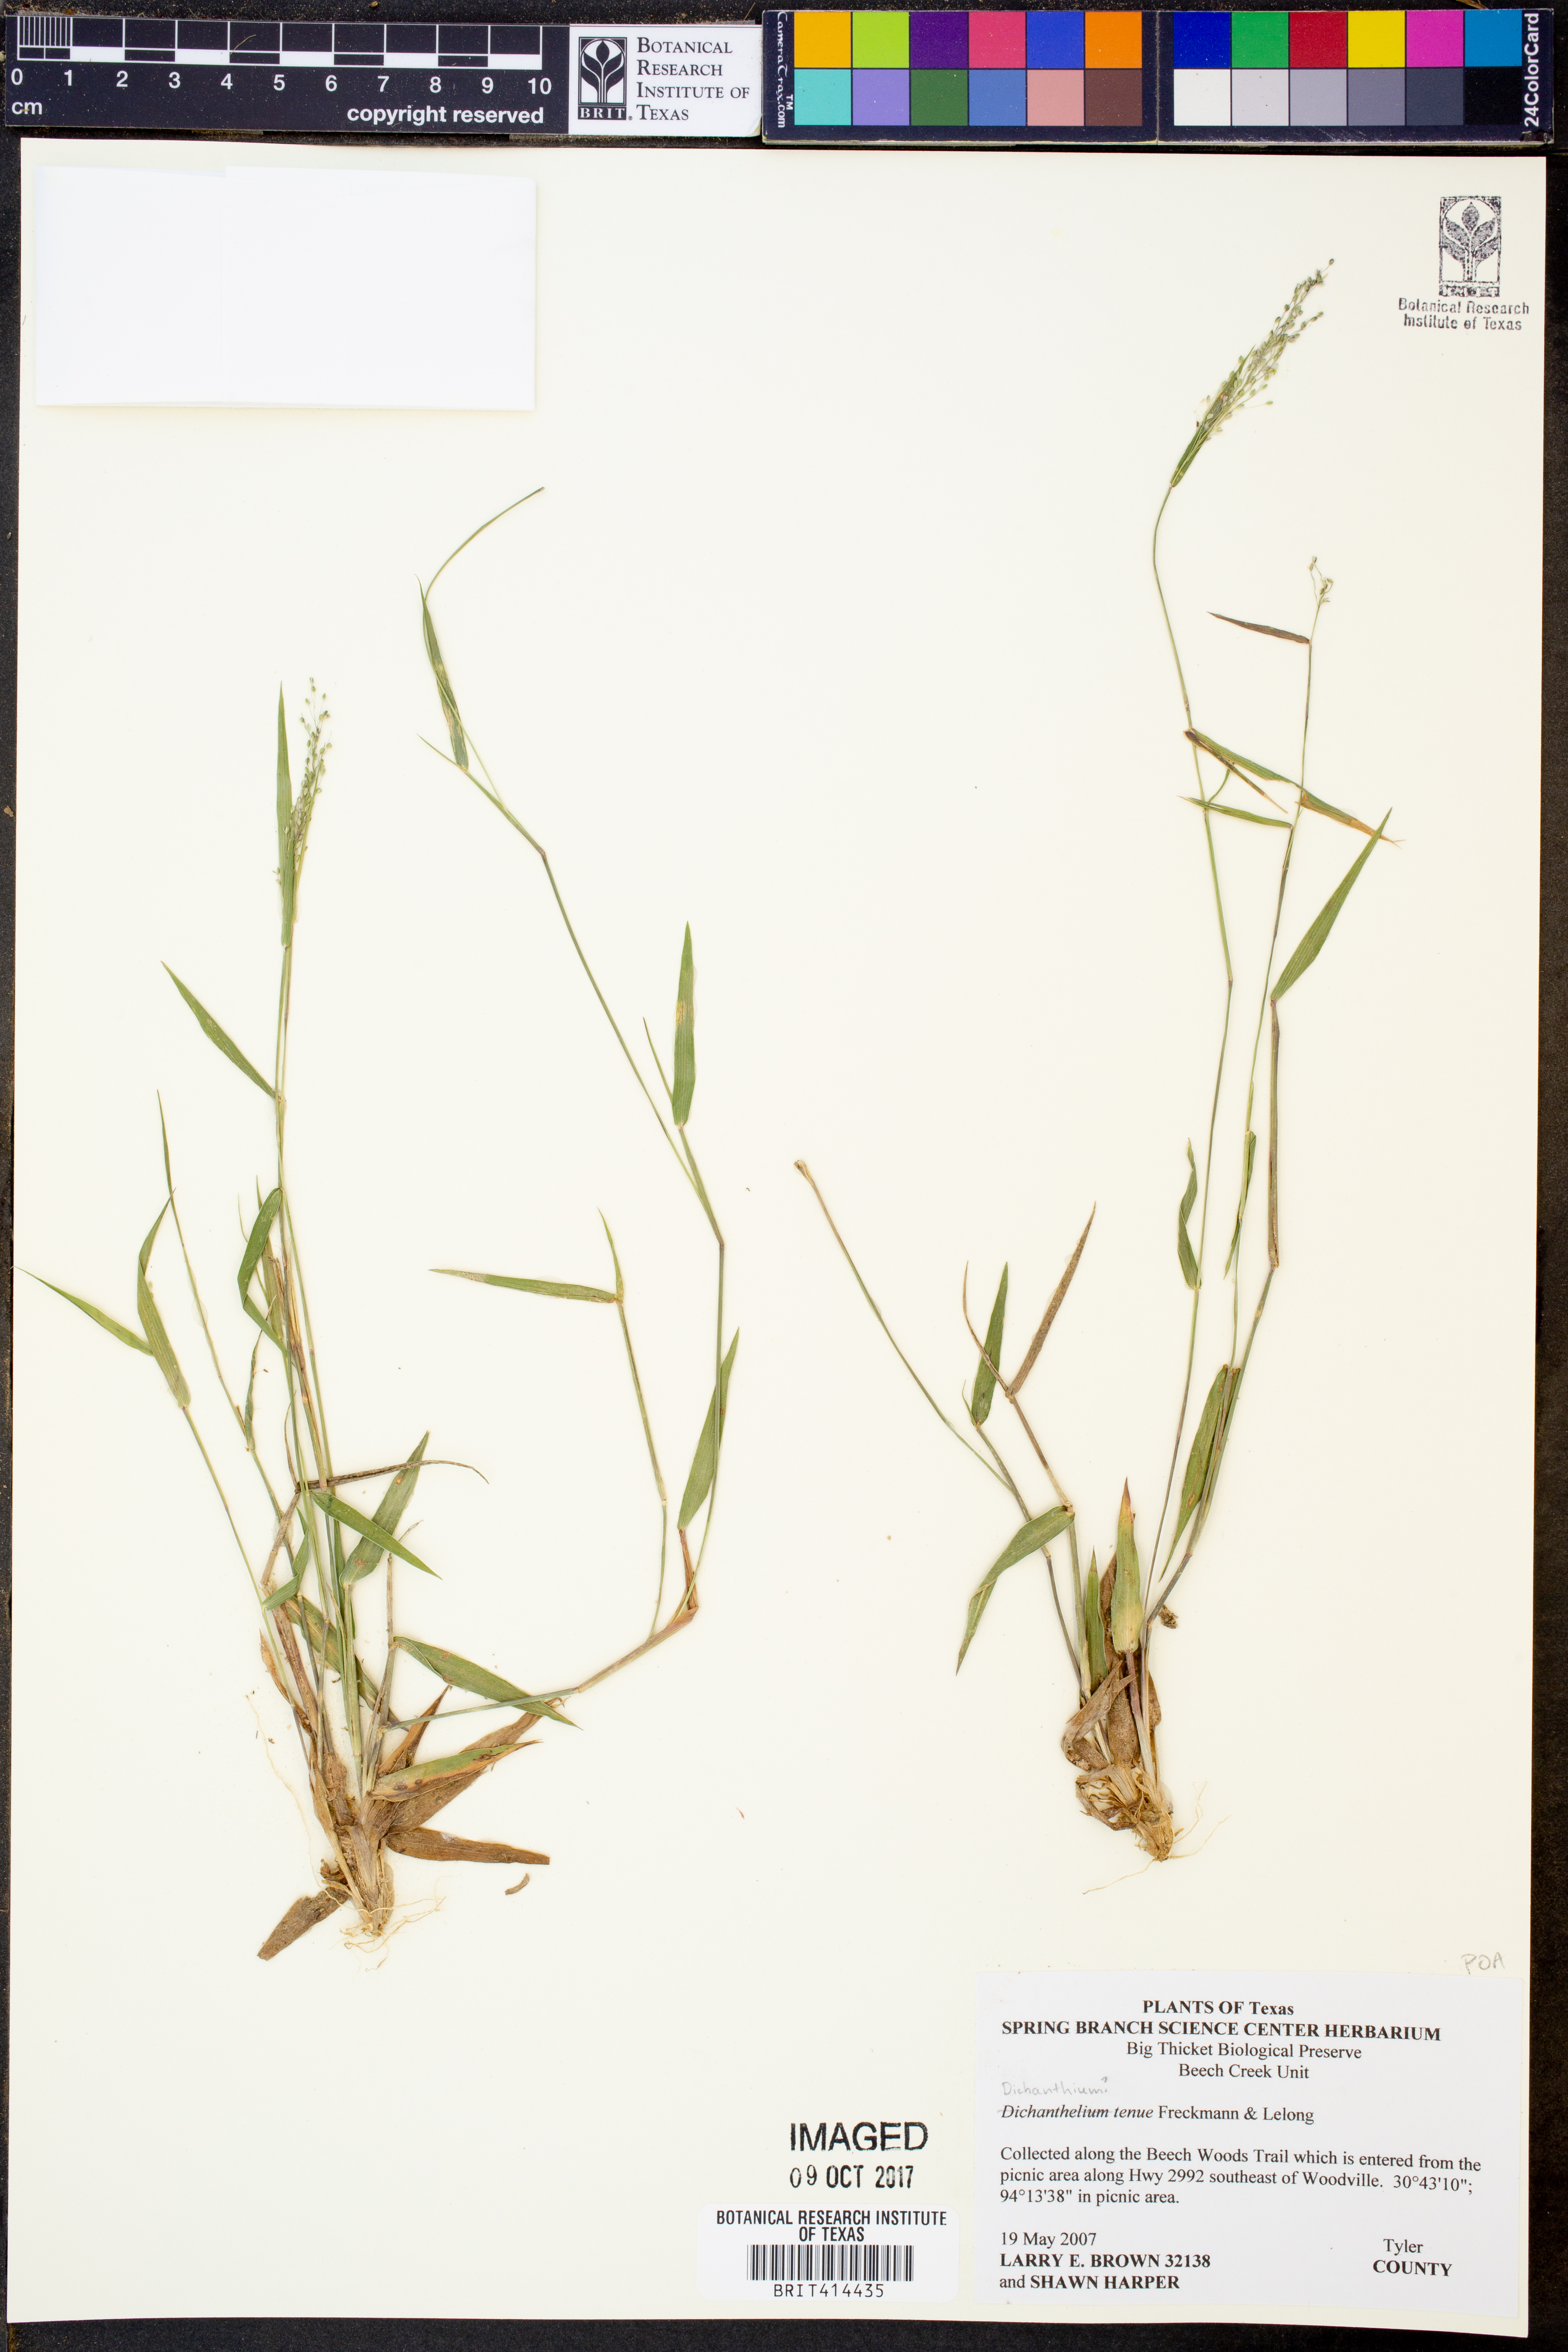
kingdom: Plantae
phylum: Tracheophyta
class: Liliopsida
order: Poales
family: Poaceae
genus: Dichanthelium
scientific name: Dichanthelium tenue
